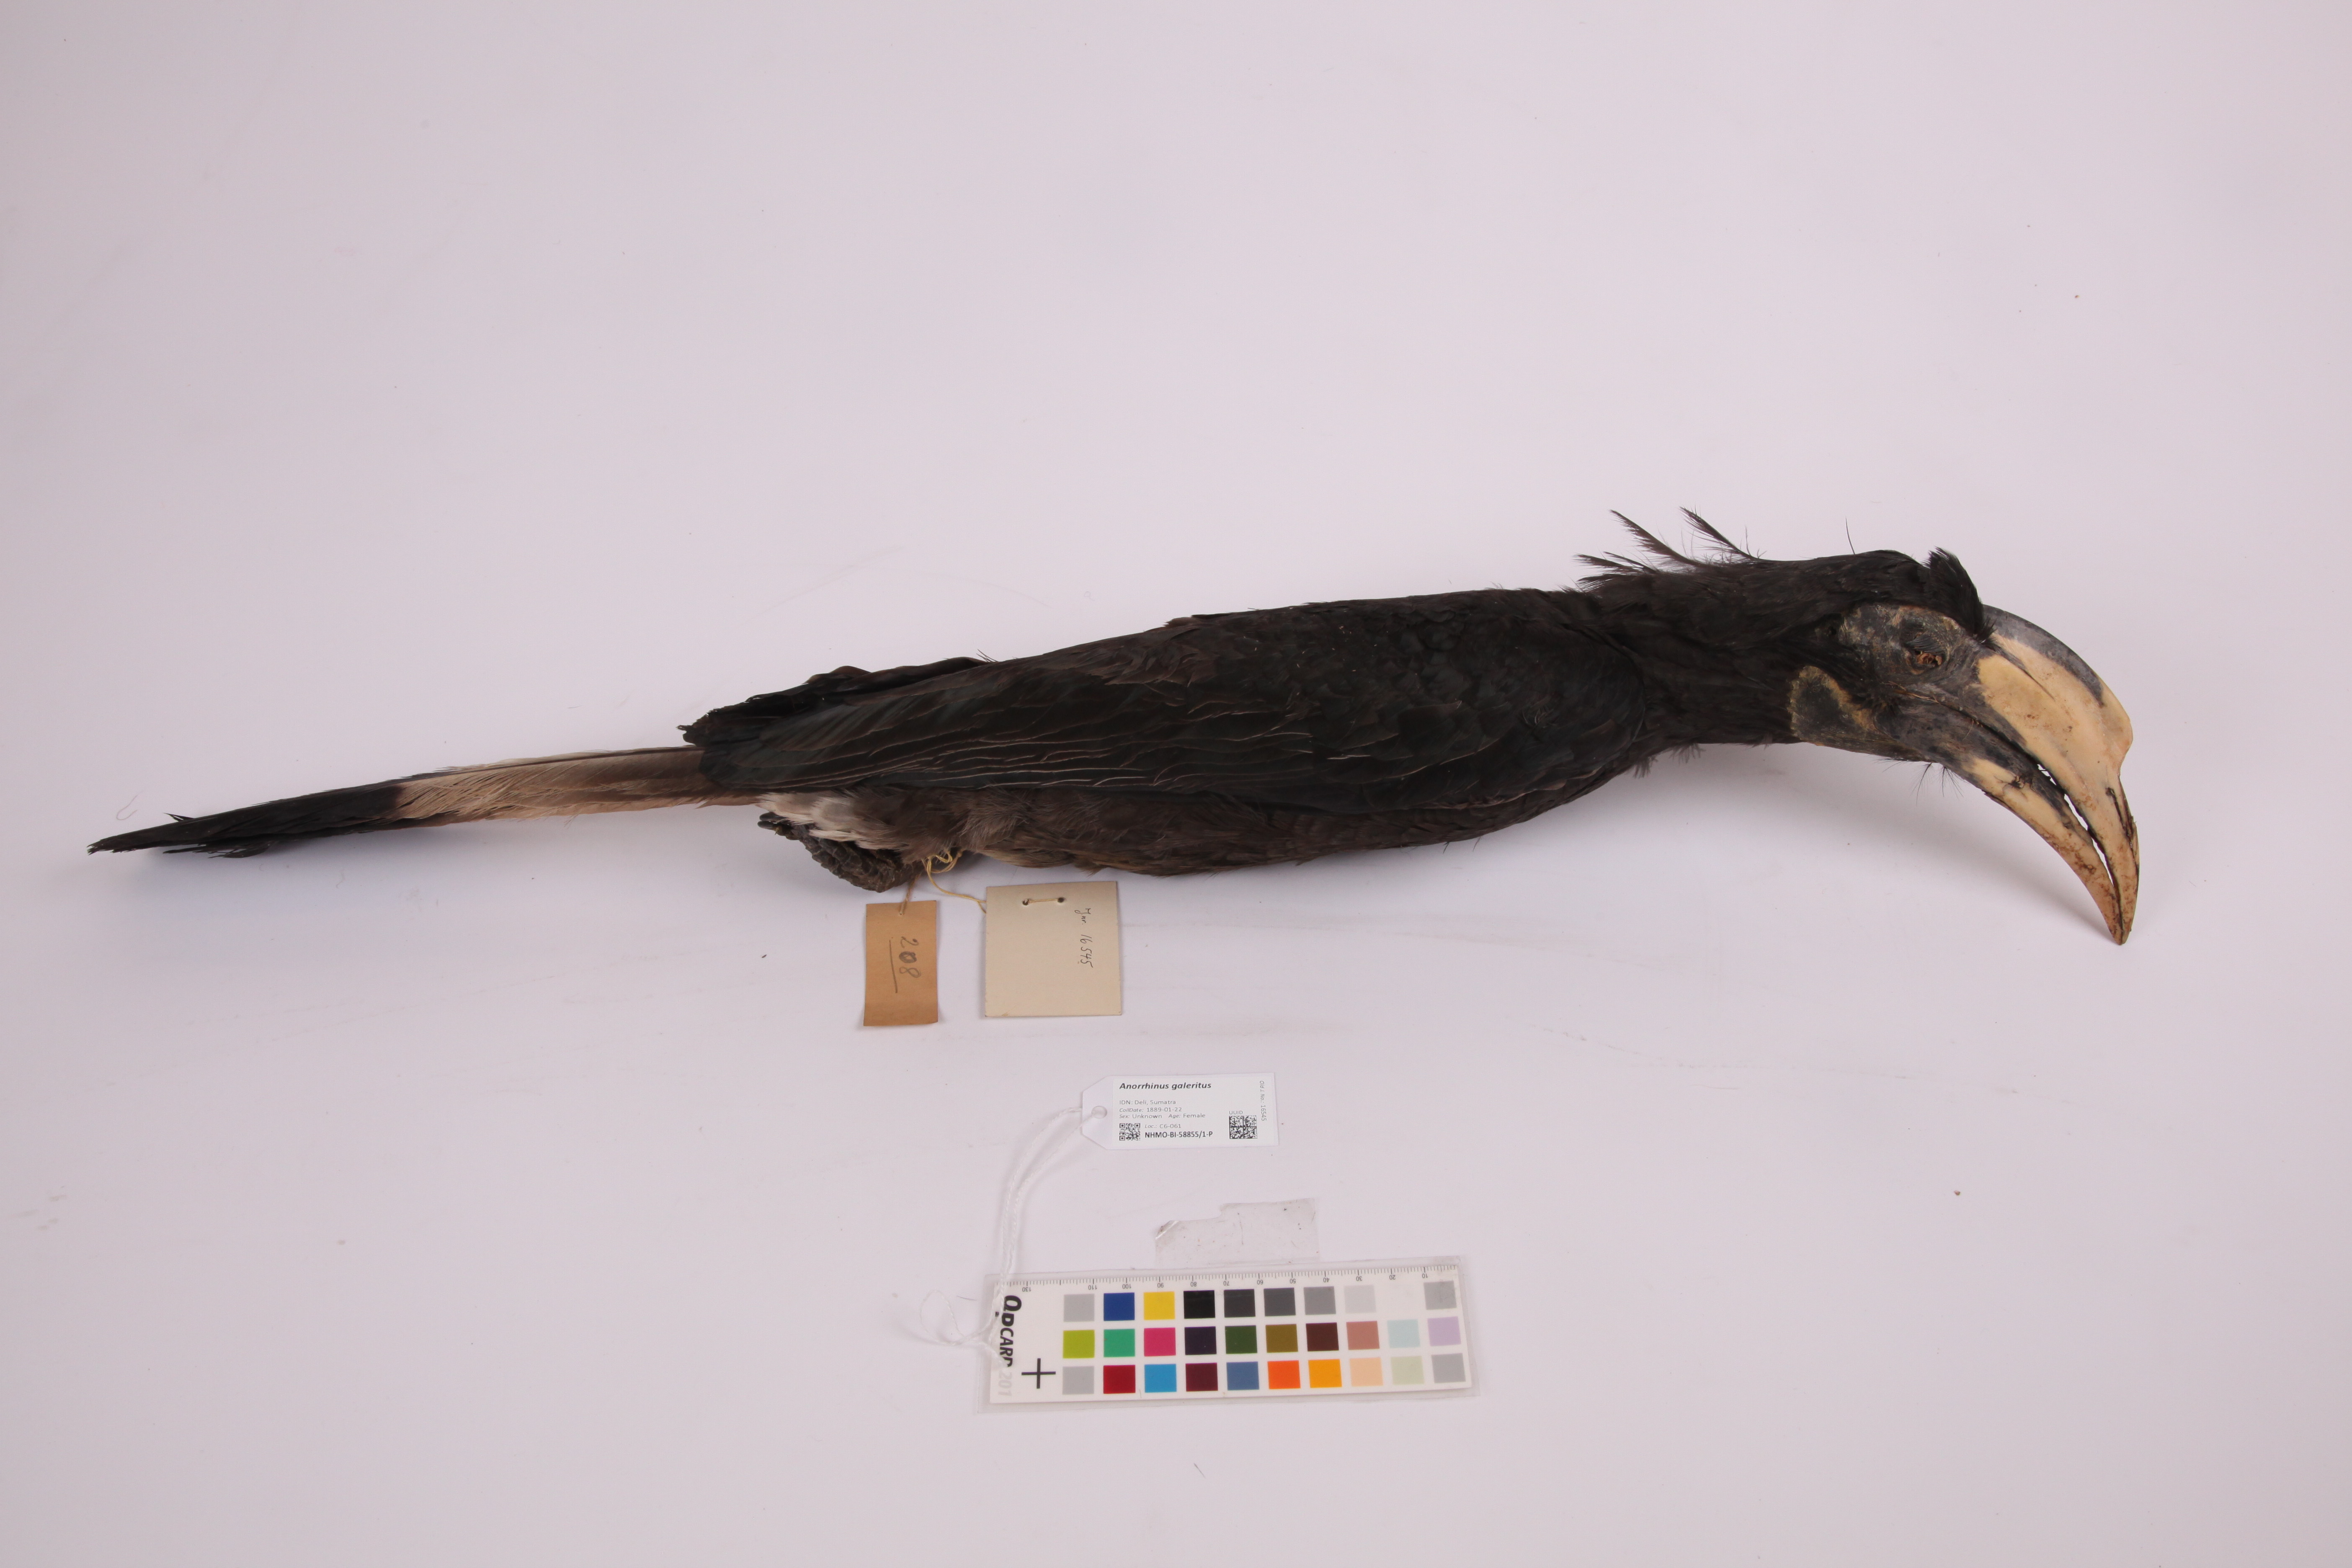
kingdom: Animalia
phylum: Chordata
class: Aves
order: Bucerotiformes
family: Bucerotidae
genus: Anorrhinus
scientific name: Anorrhinus galeritus
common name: Bushy-crested hornbill
